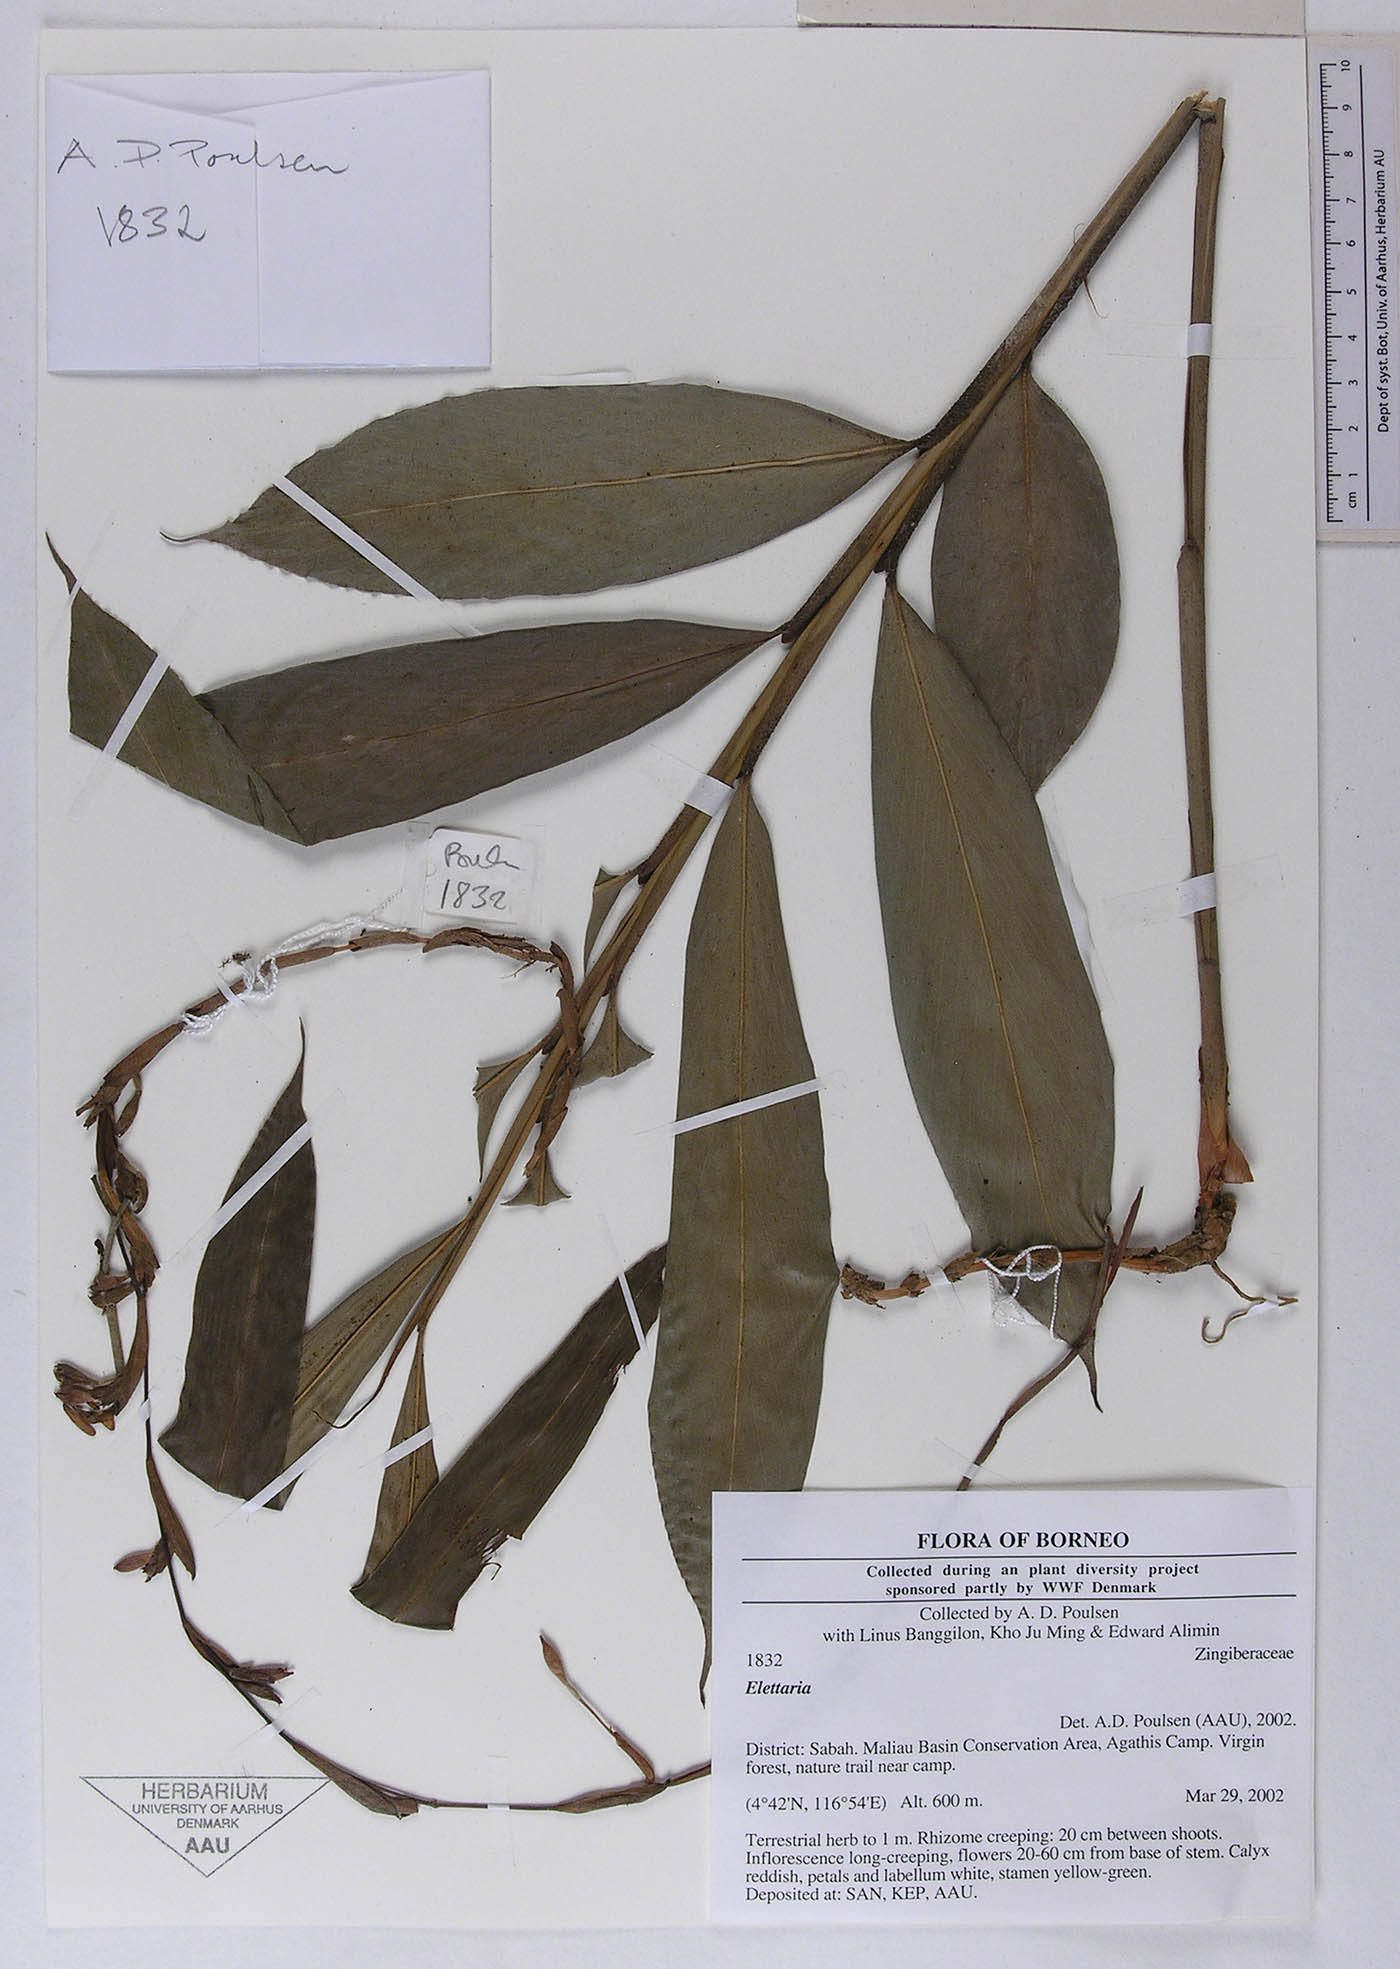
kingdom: Plantae
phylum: Tracheophyta
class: Liliopsida
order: Zingiberales
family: Zingiberaceae
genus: Sulettaria
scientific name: Sulettaria
